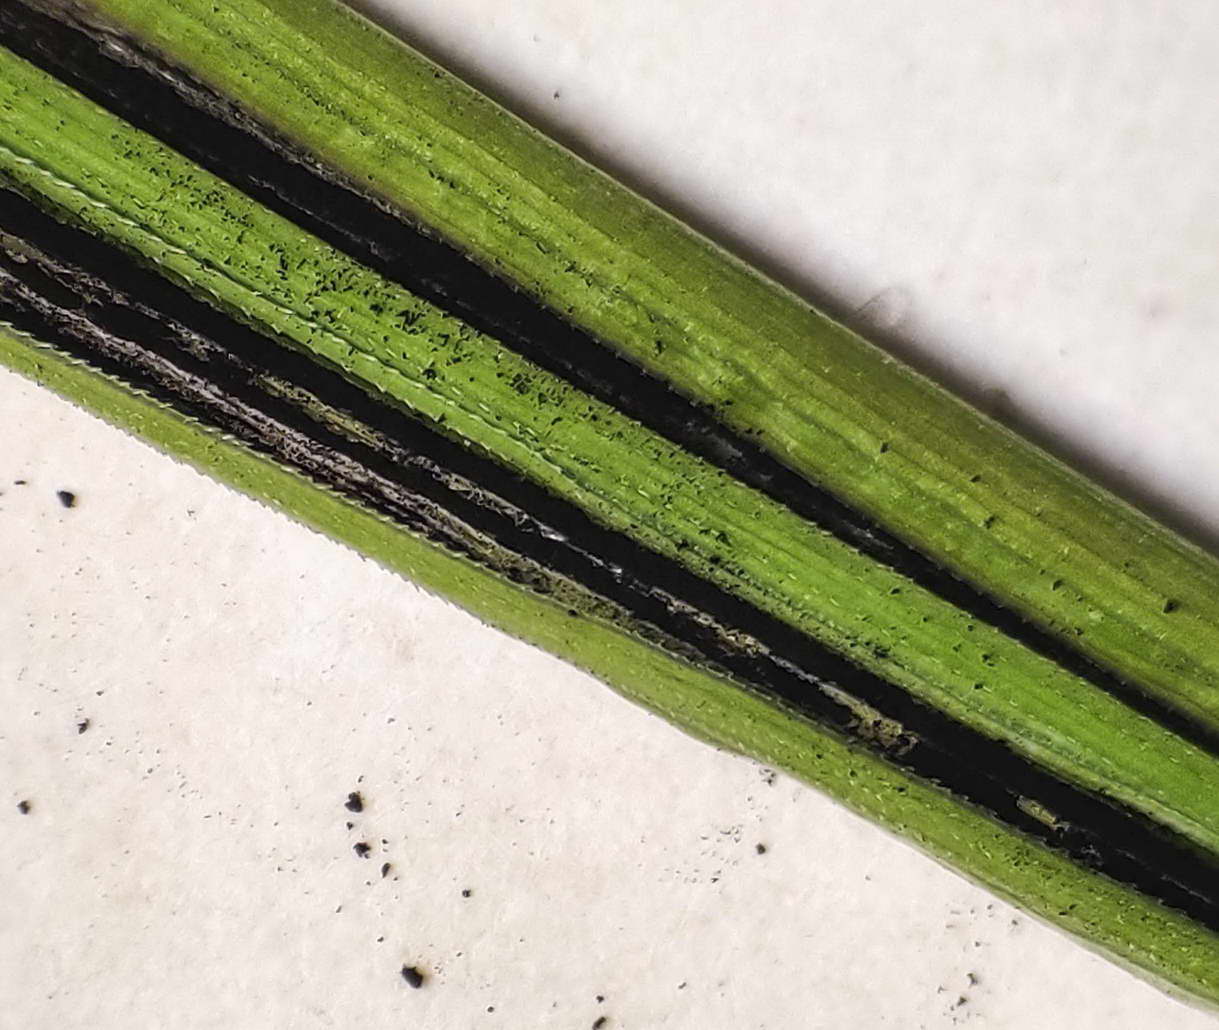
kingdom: Fungi
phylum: Basidiomycota
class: Ustilaginomycetes
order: Ustilaginales
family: Ustilaginaceae
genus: Ustilago
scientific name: Ustilago
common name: brandsvamp
